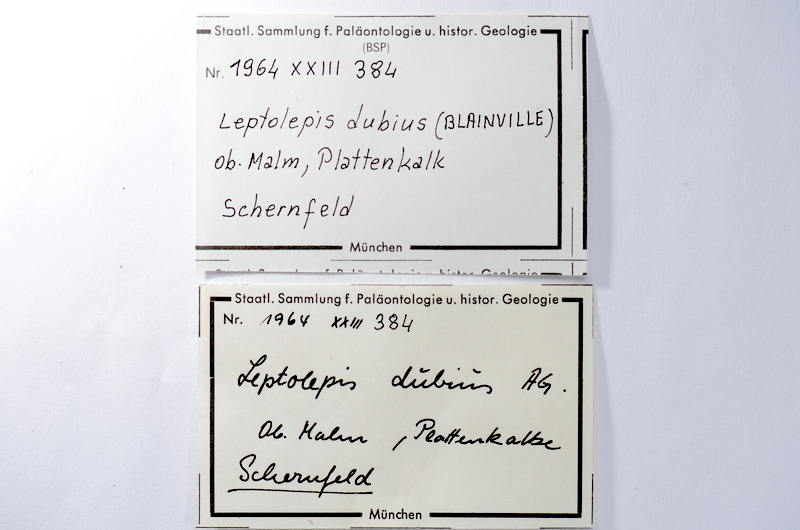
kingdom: Animalia
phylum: Chordata
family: Ascalaboidae
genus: Tharsis
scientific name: Tharsis dubius
